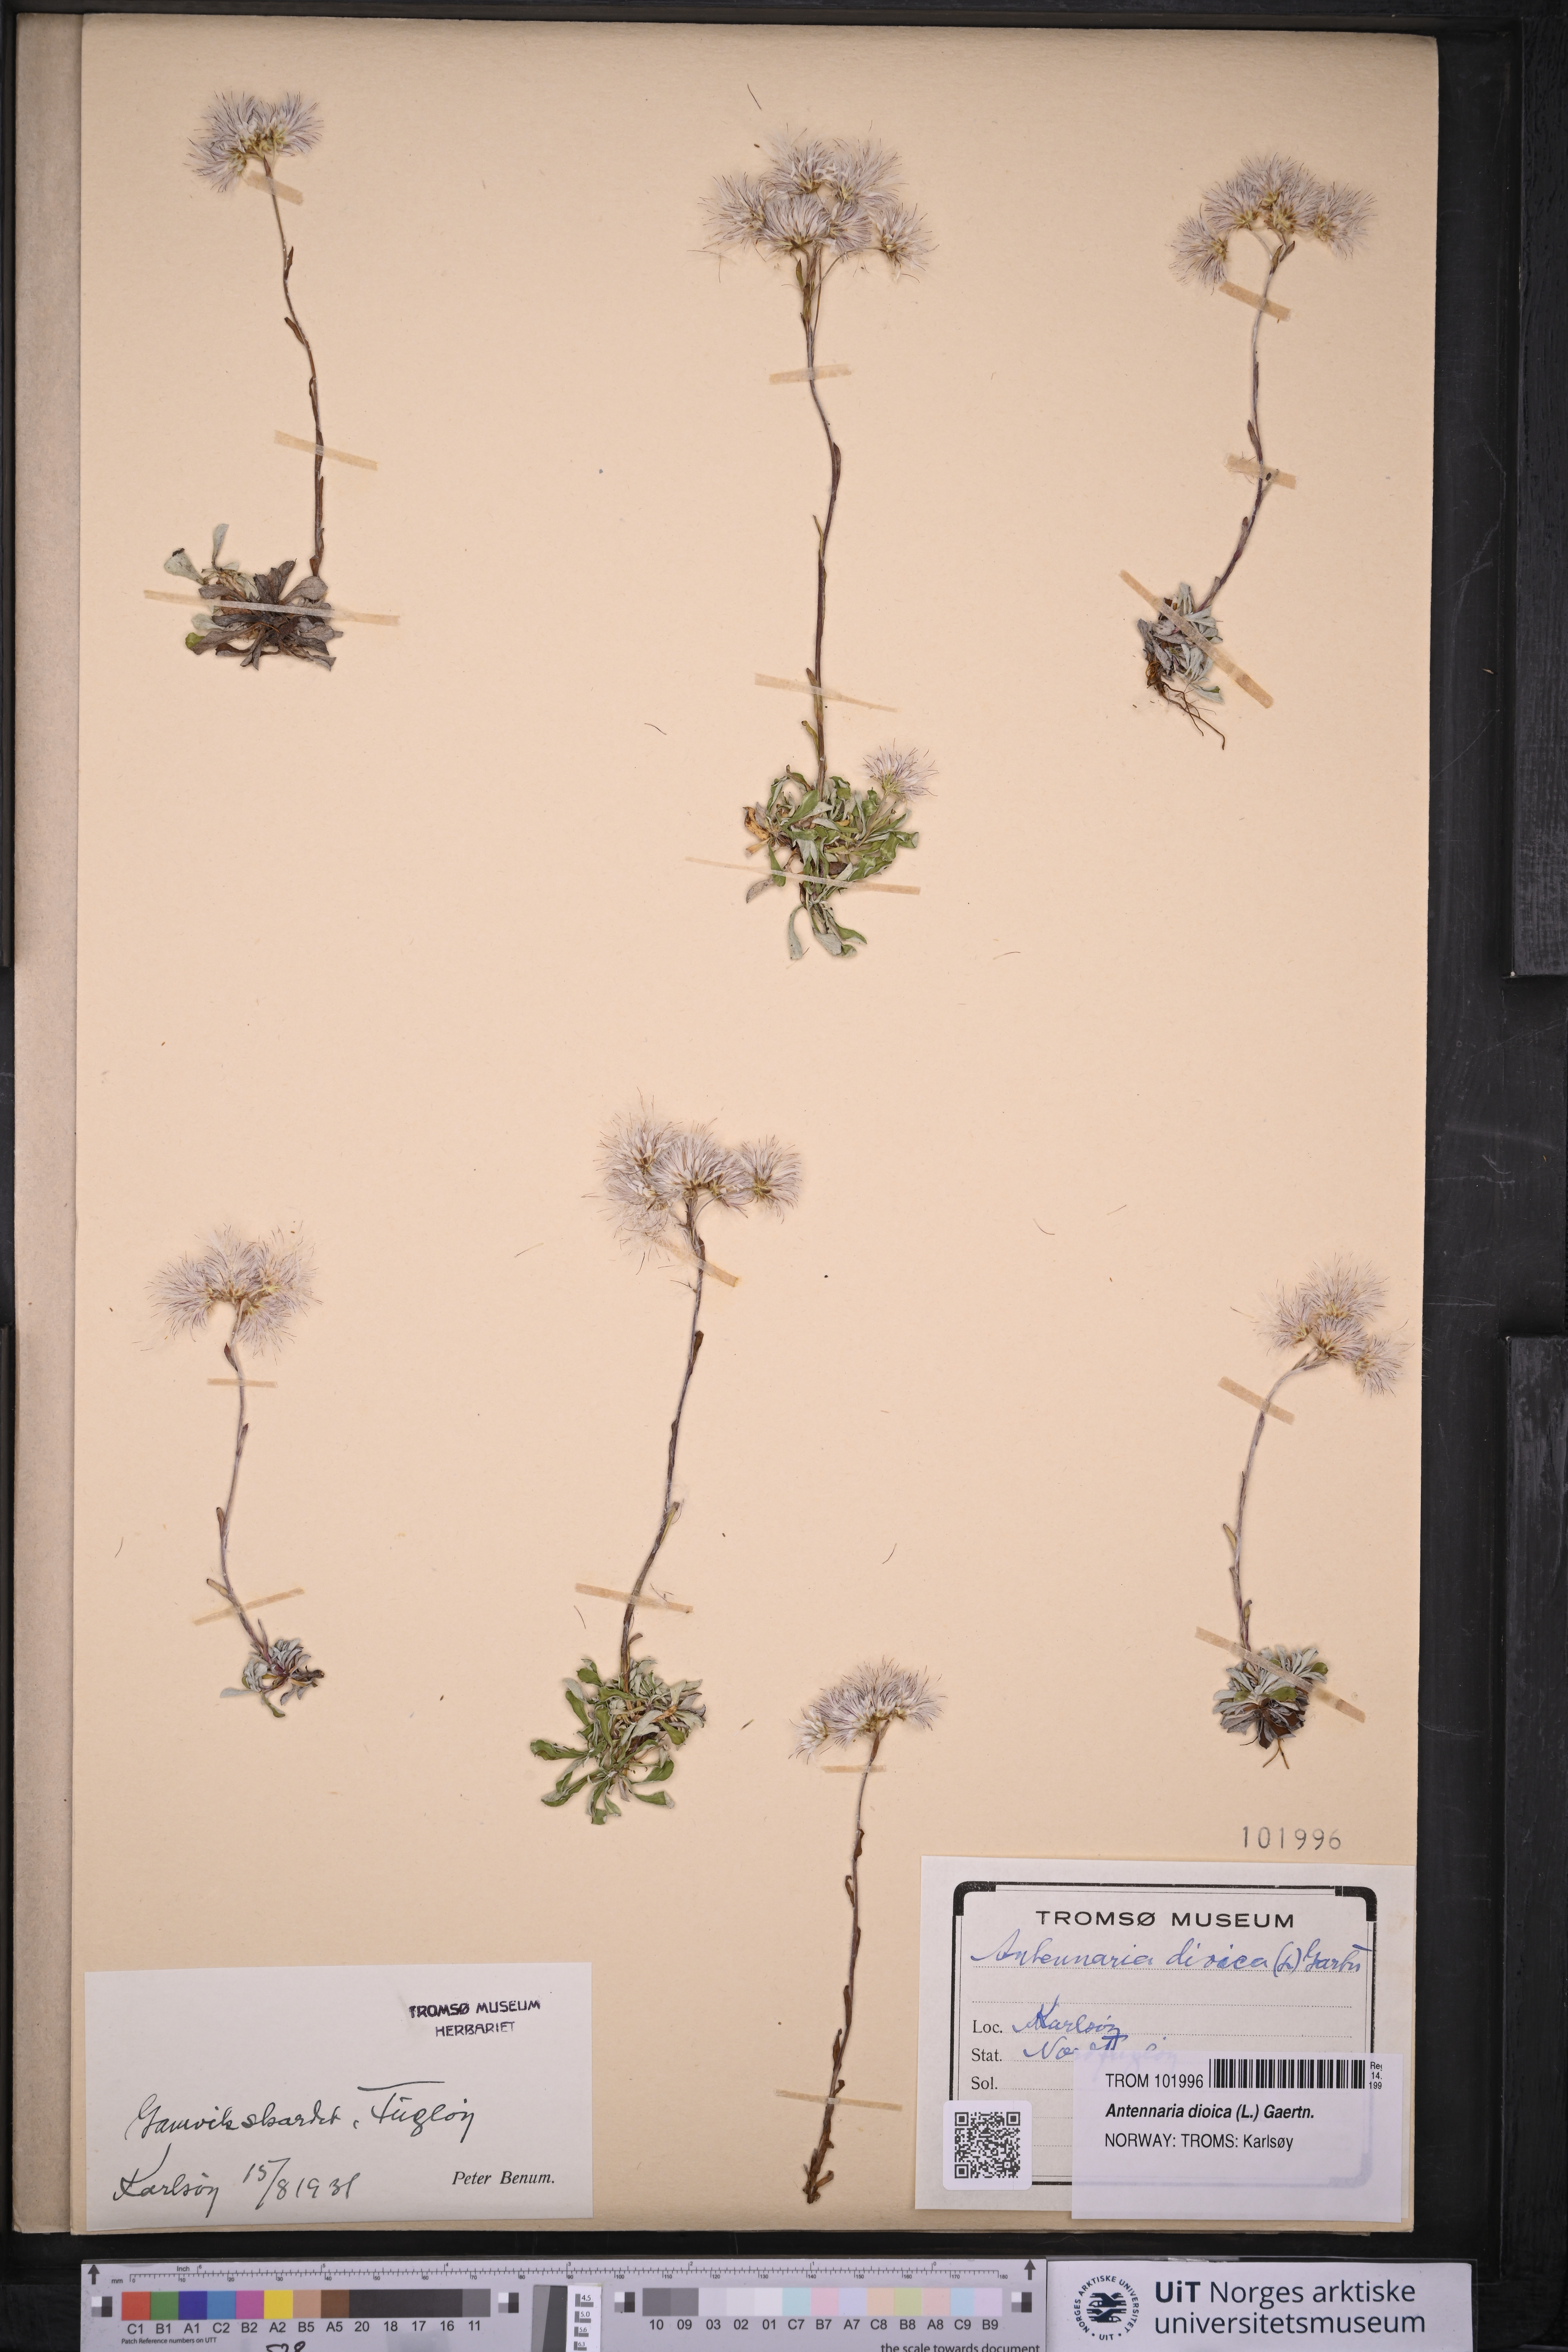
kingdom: Plantae
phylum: Tracheophyta
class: Magnoliopsida
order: Asterales
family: Asteraceae
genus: Antennaria
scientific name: Antennaria dioica
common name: Mountain everlasting
